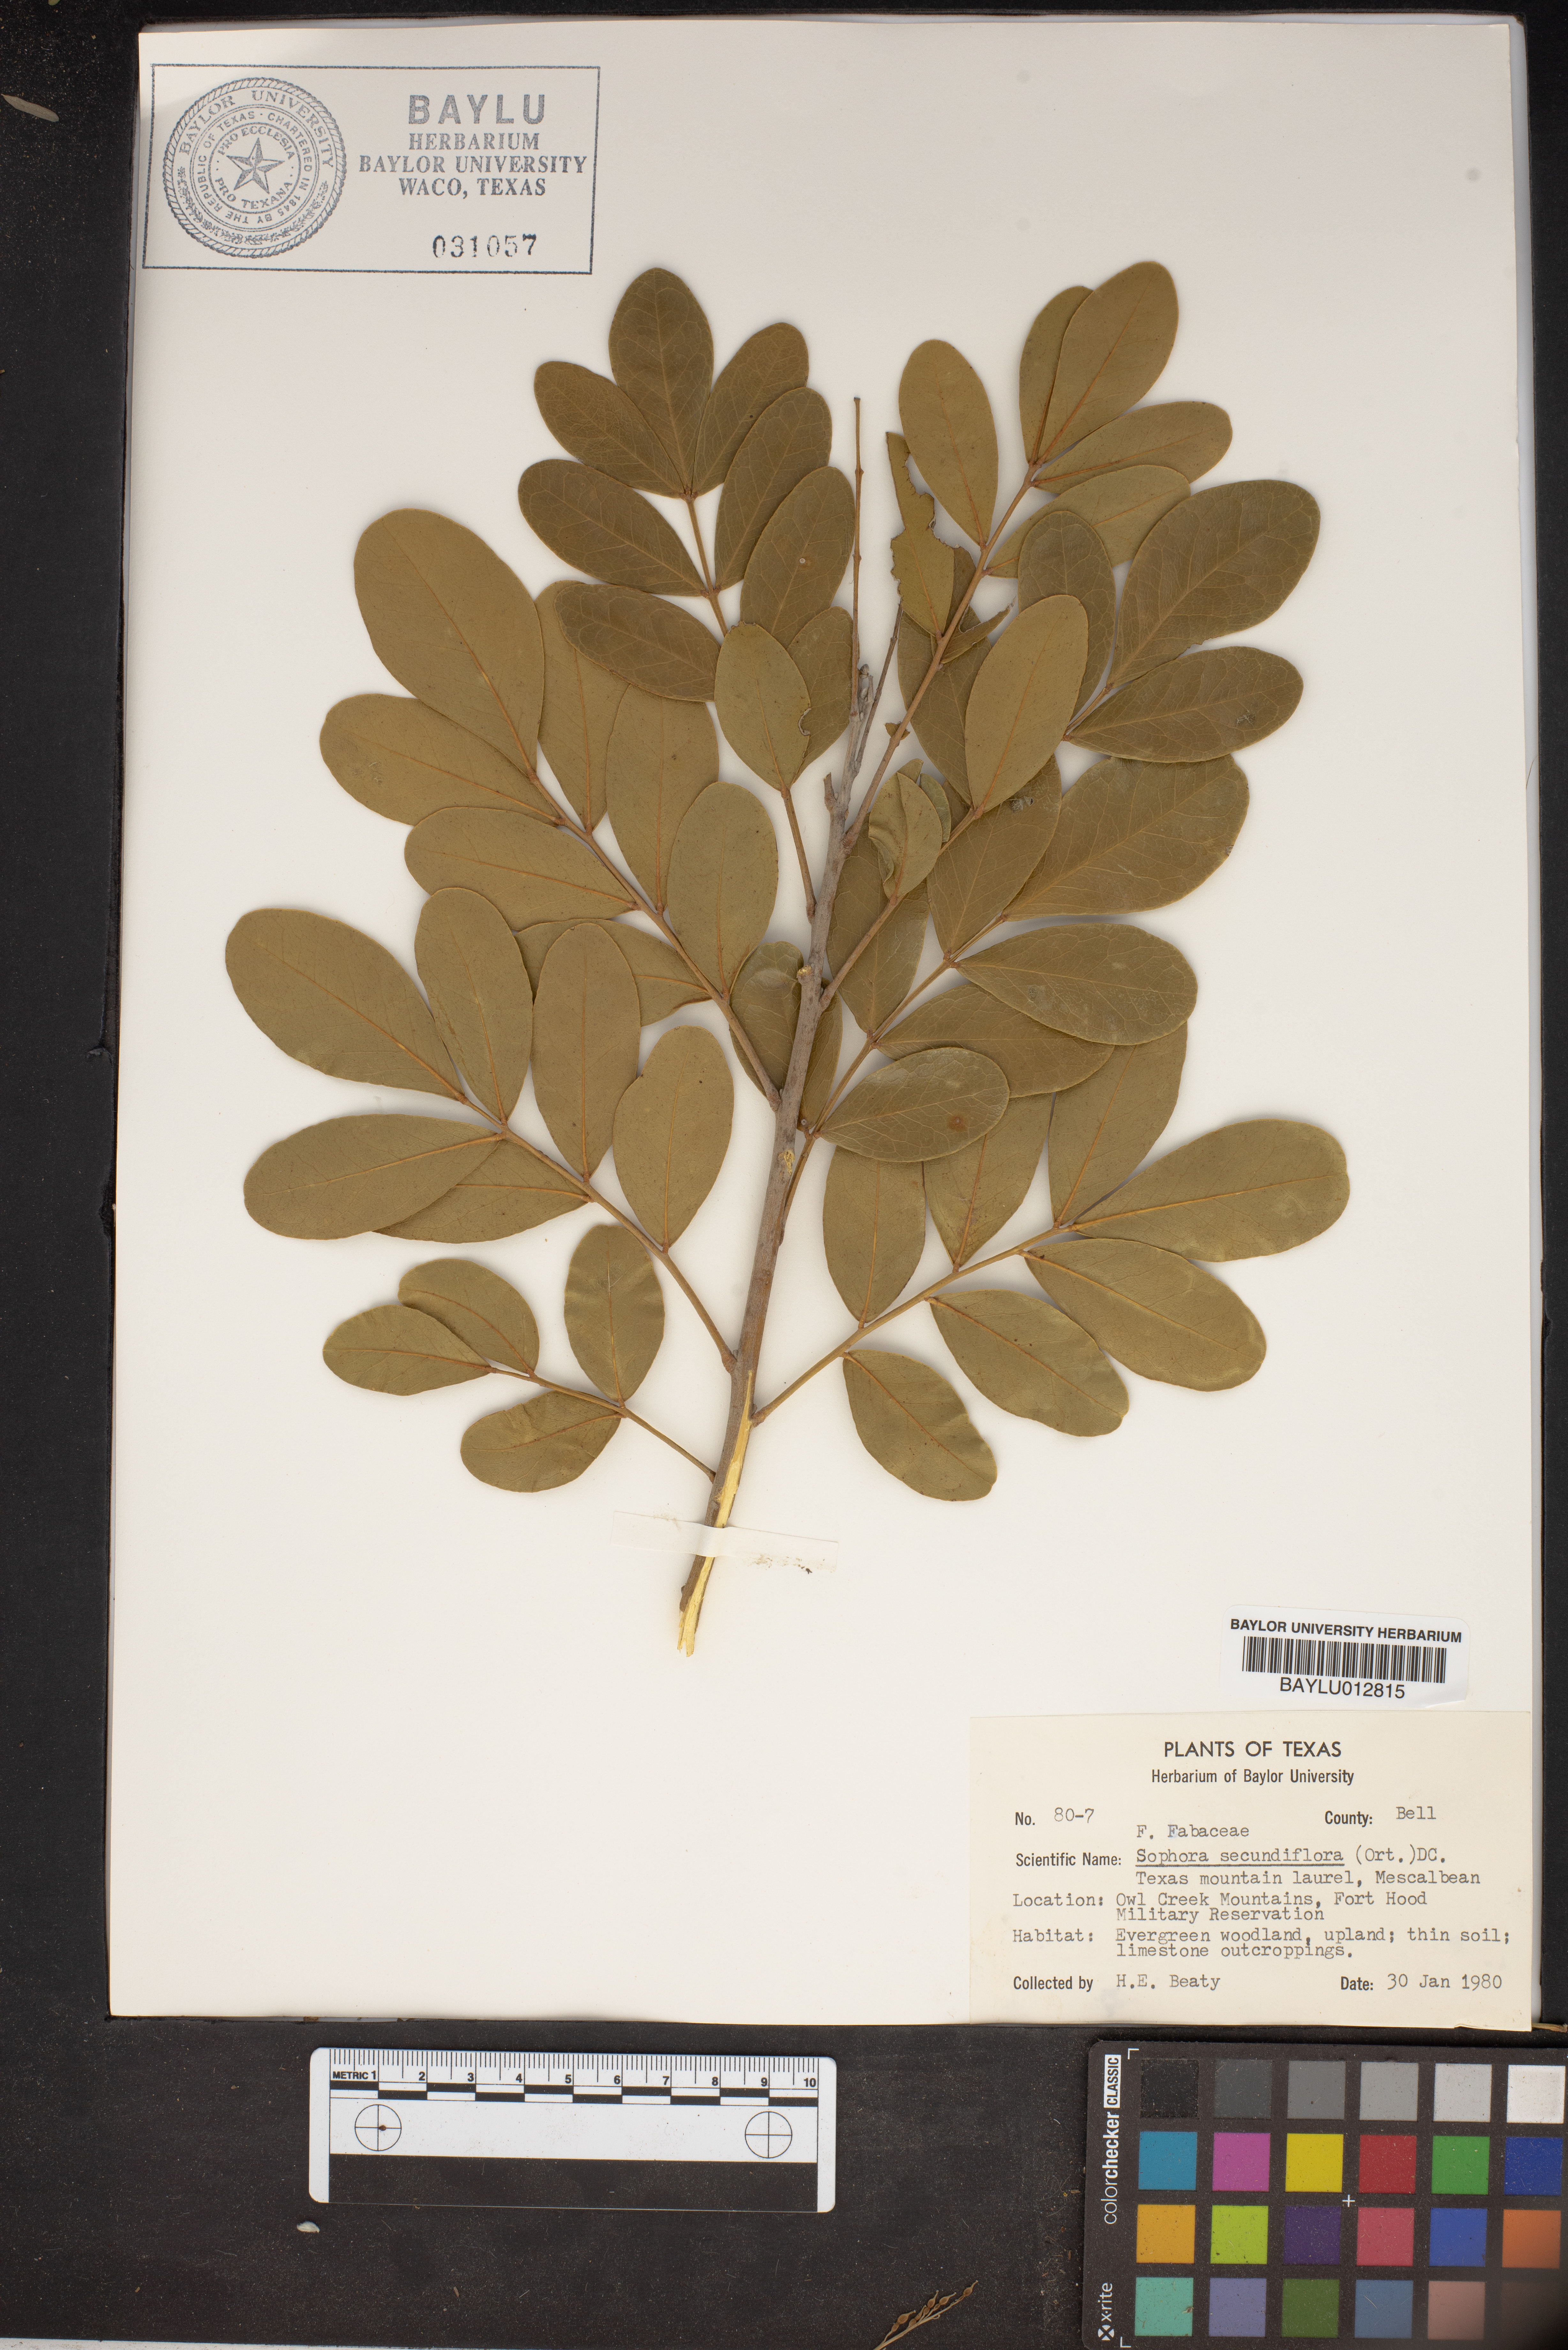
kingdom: Plantae
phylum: Tracheophyta
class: Magnoliopsida
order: Fabales
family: Fabaceae
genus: Dermatophyllum
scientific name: Dermatophyllum secundiflorum
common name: Texas-mountain-laurel
